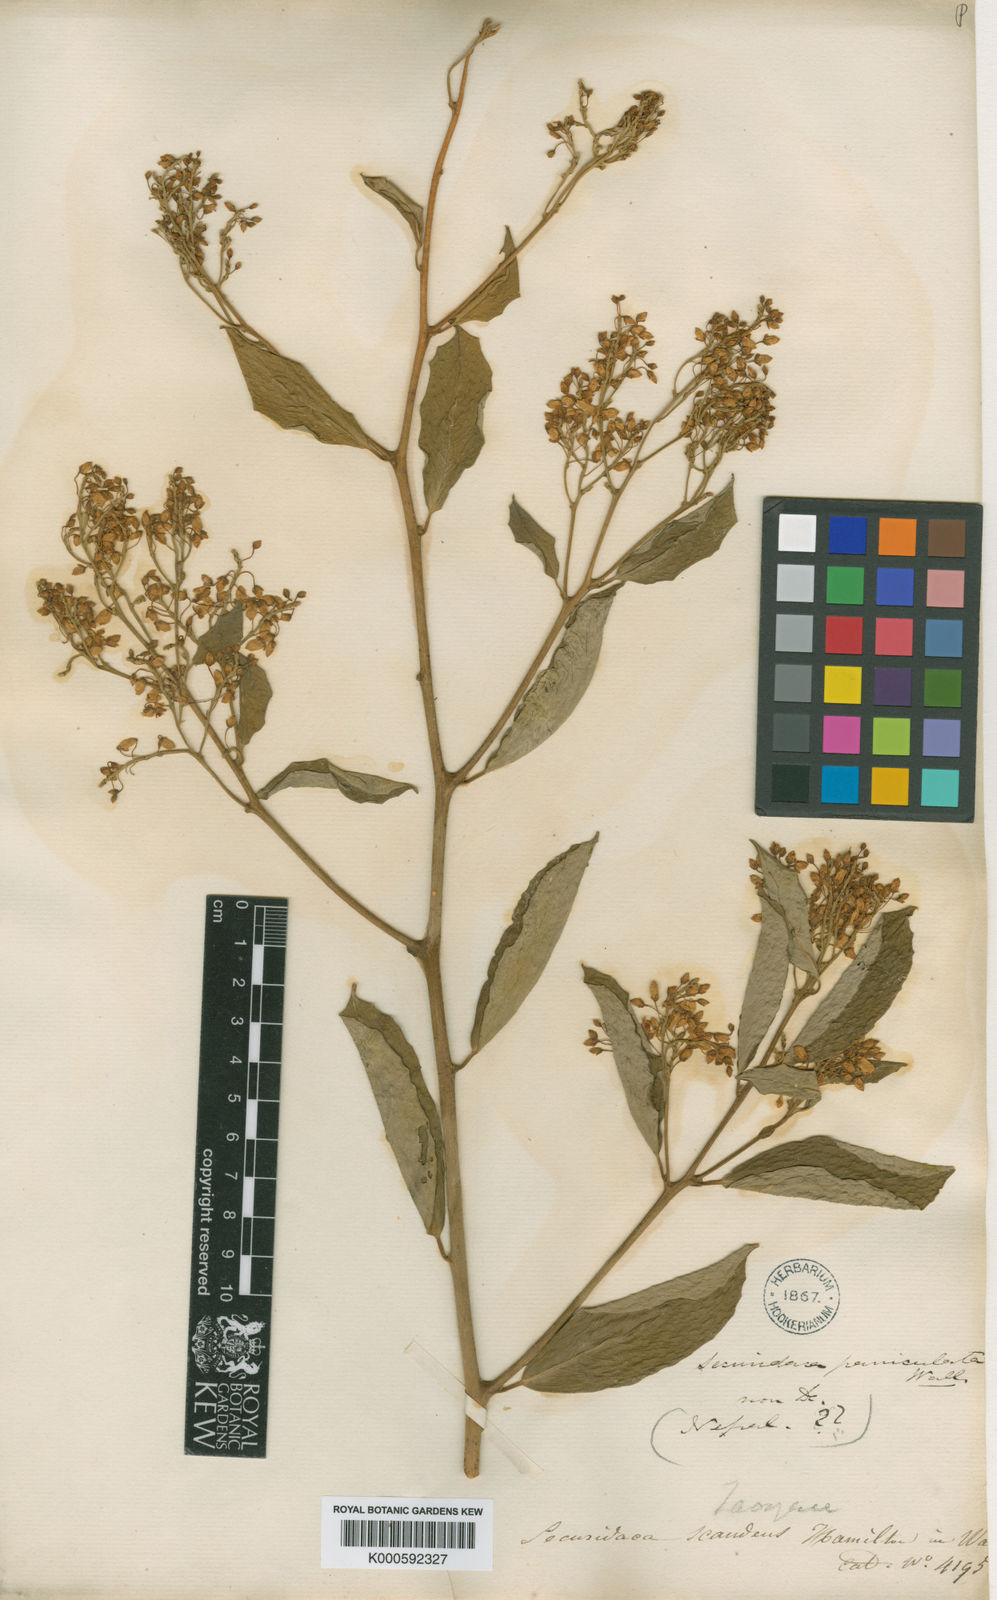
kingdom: Plantae
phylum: Tracheophyta
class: Magnoliopsida
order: Fabales
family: Polygalaceae
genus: Securidaca
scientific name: Securidaca inappendiculata
